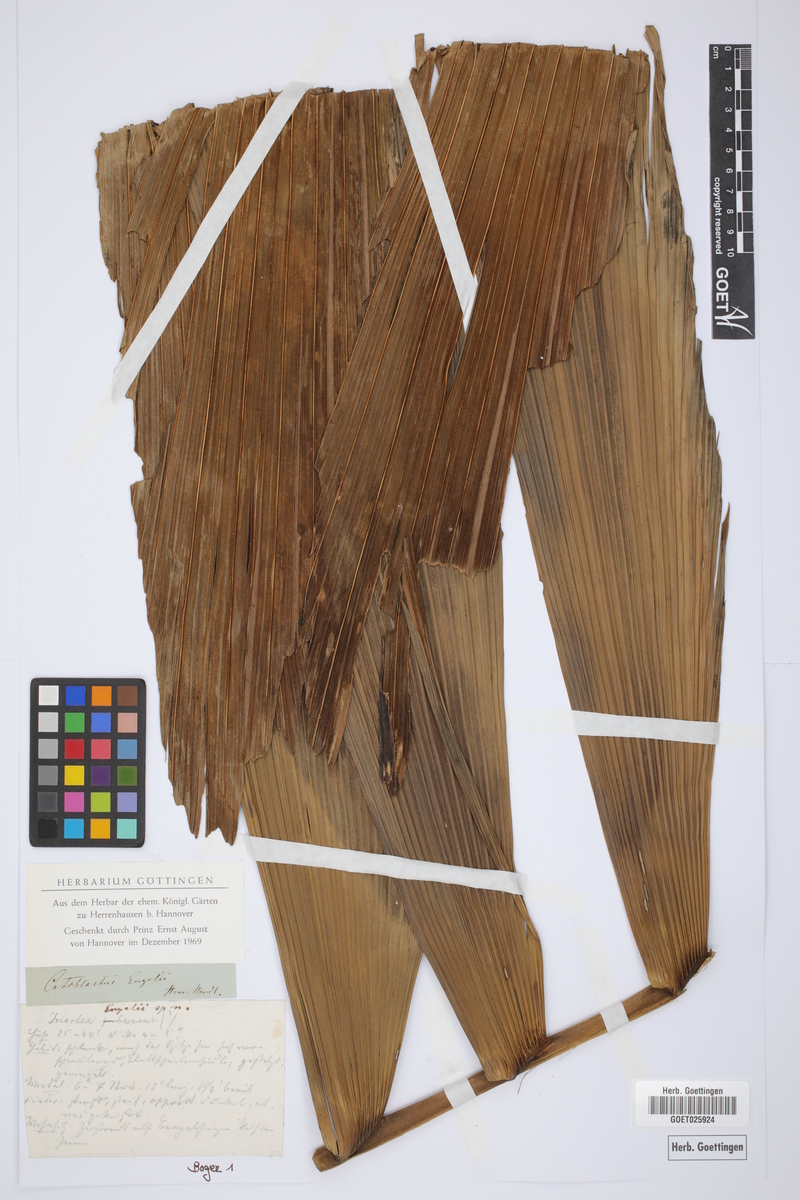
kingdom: Plantae
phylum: Tracheophyta
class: Liliopsida
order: Arecales
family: Arecaceae
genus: Wettinia
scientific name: Wettinia praemorsa
